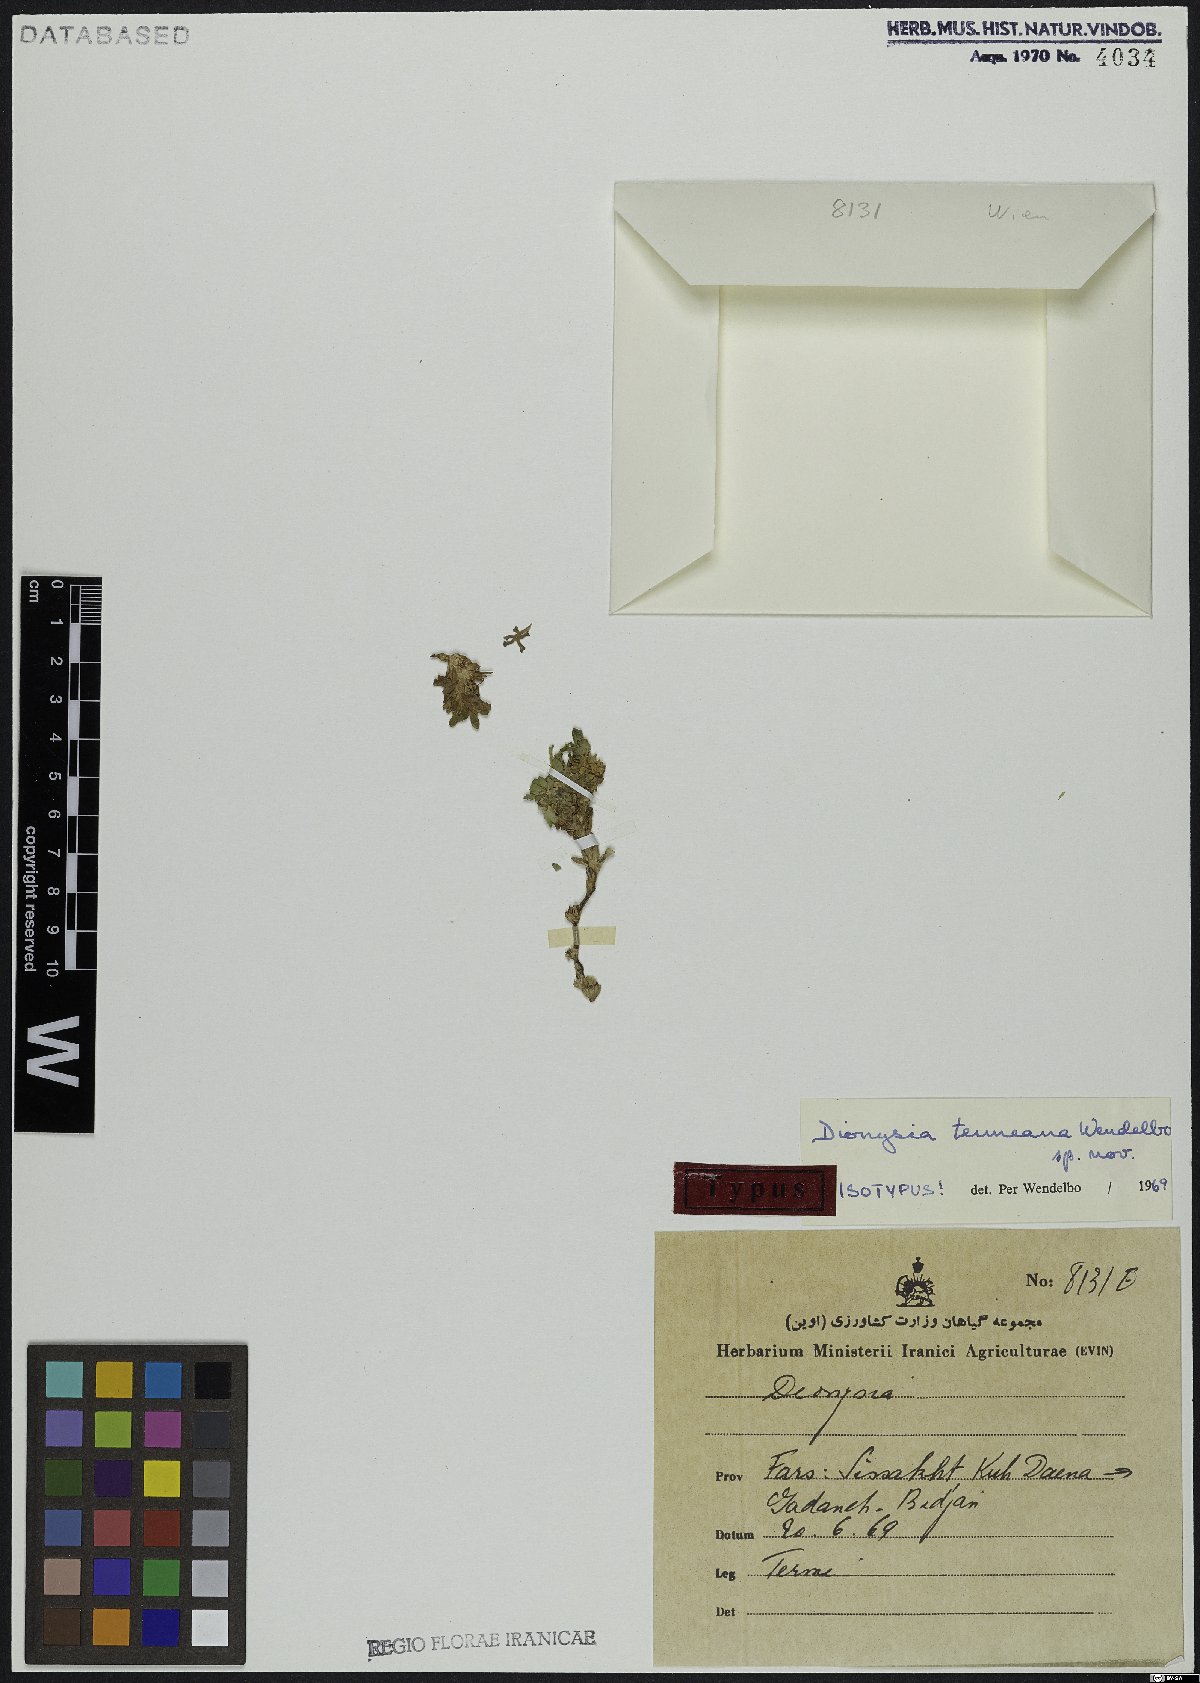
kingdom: Plantae
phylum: Tracheophyta
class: Magnoliopsida
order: Ericales
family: Primulaceae
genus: Dionysia
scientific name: Dionysia termeana
